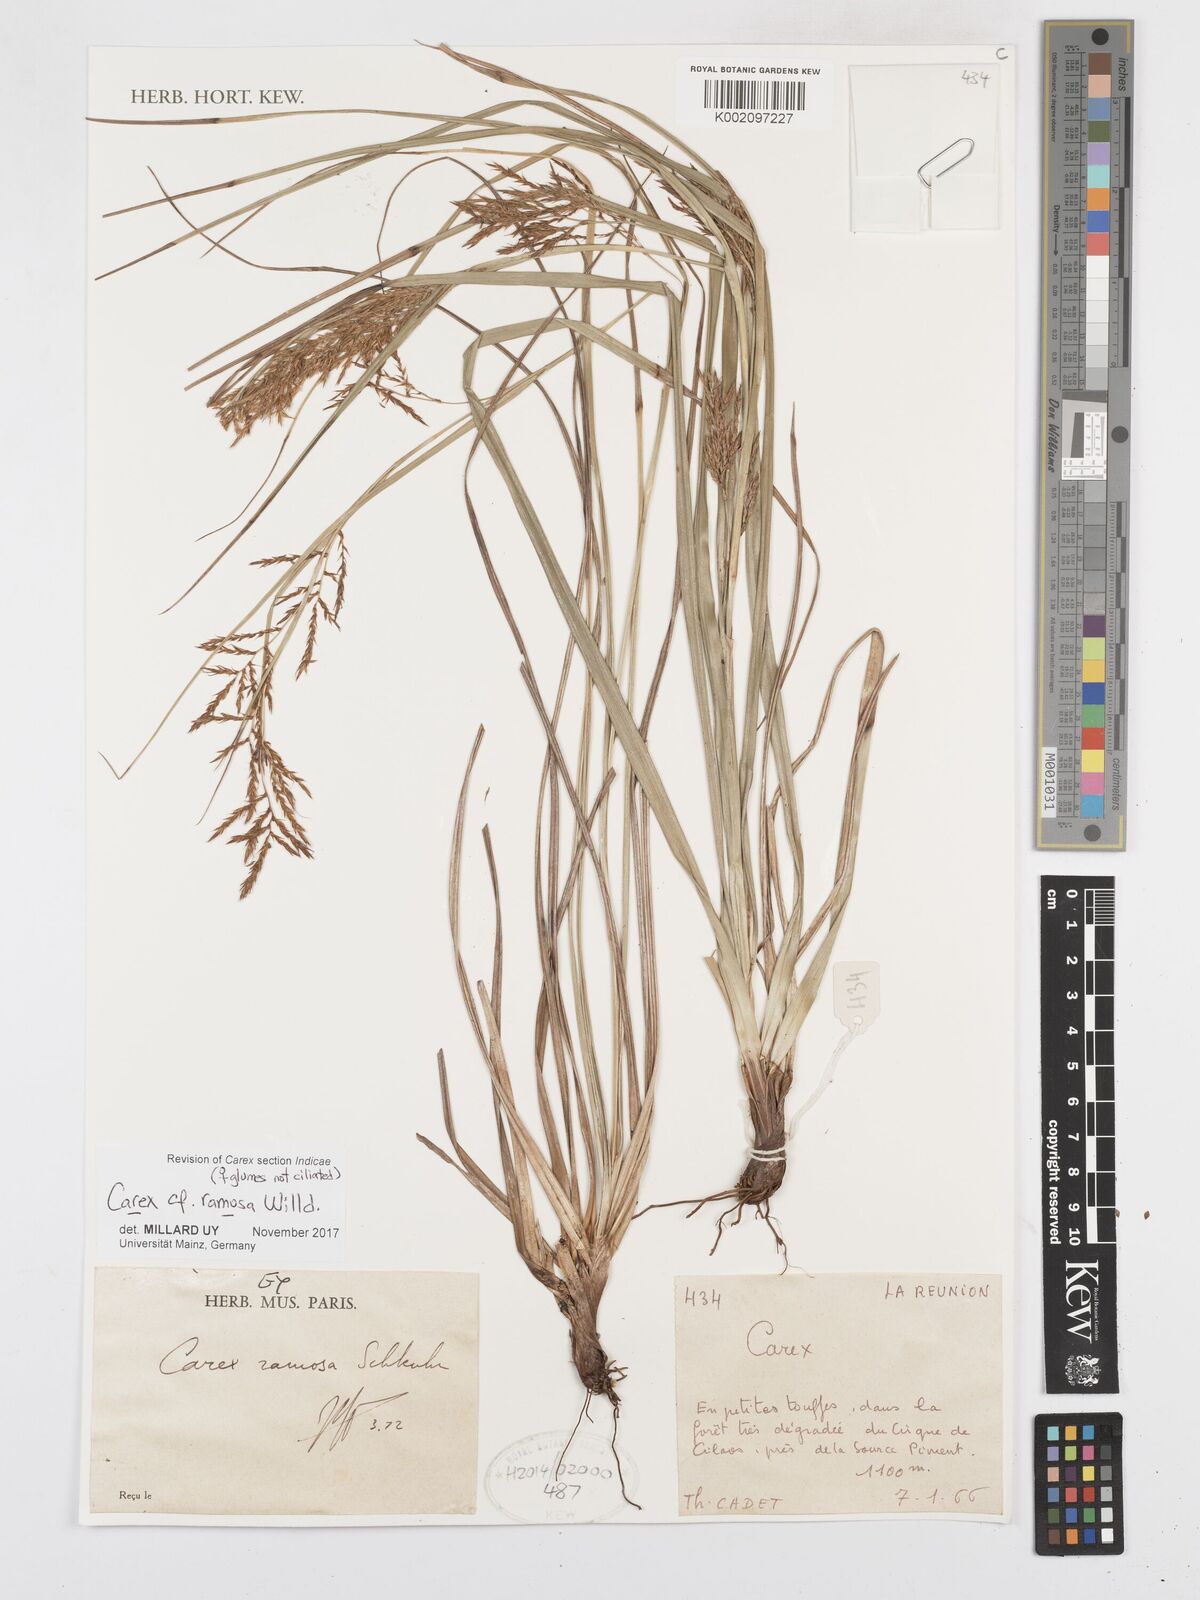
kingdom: Plantae
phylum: Tracheophyta
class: Liliopsida
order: Poales
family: Cyperaceae
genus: Carex
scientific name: Carex ramosa
